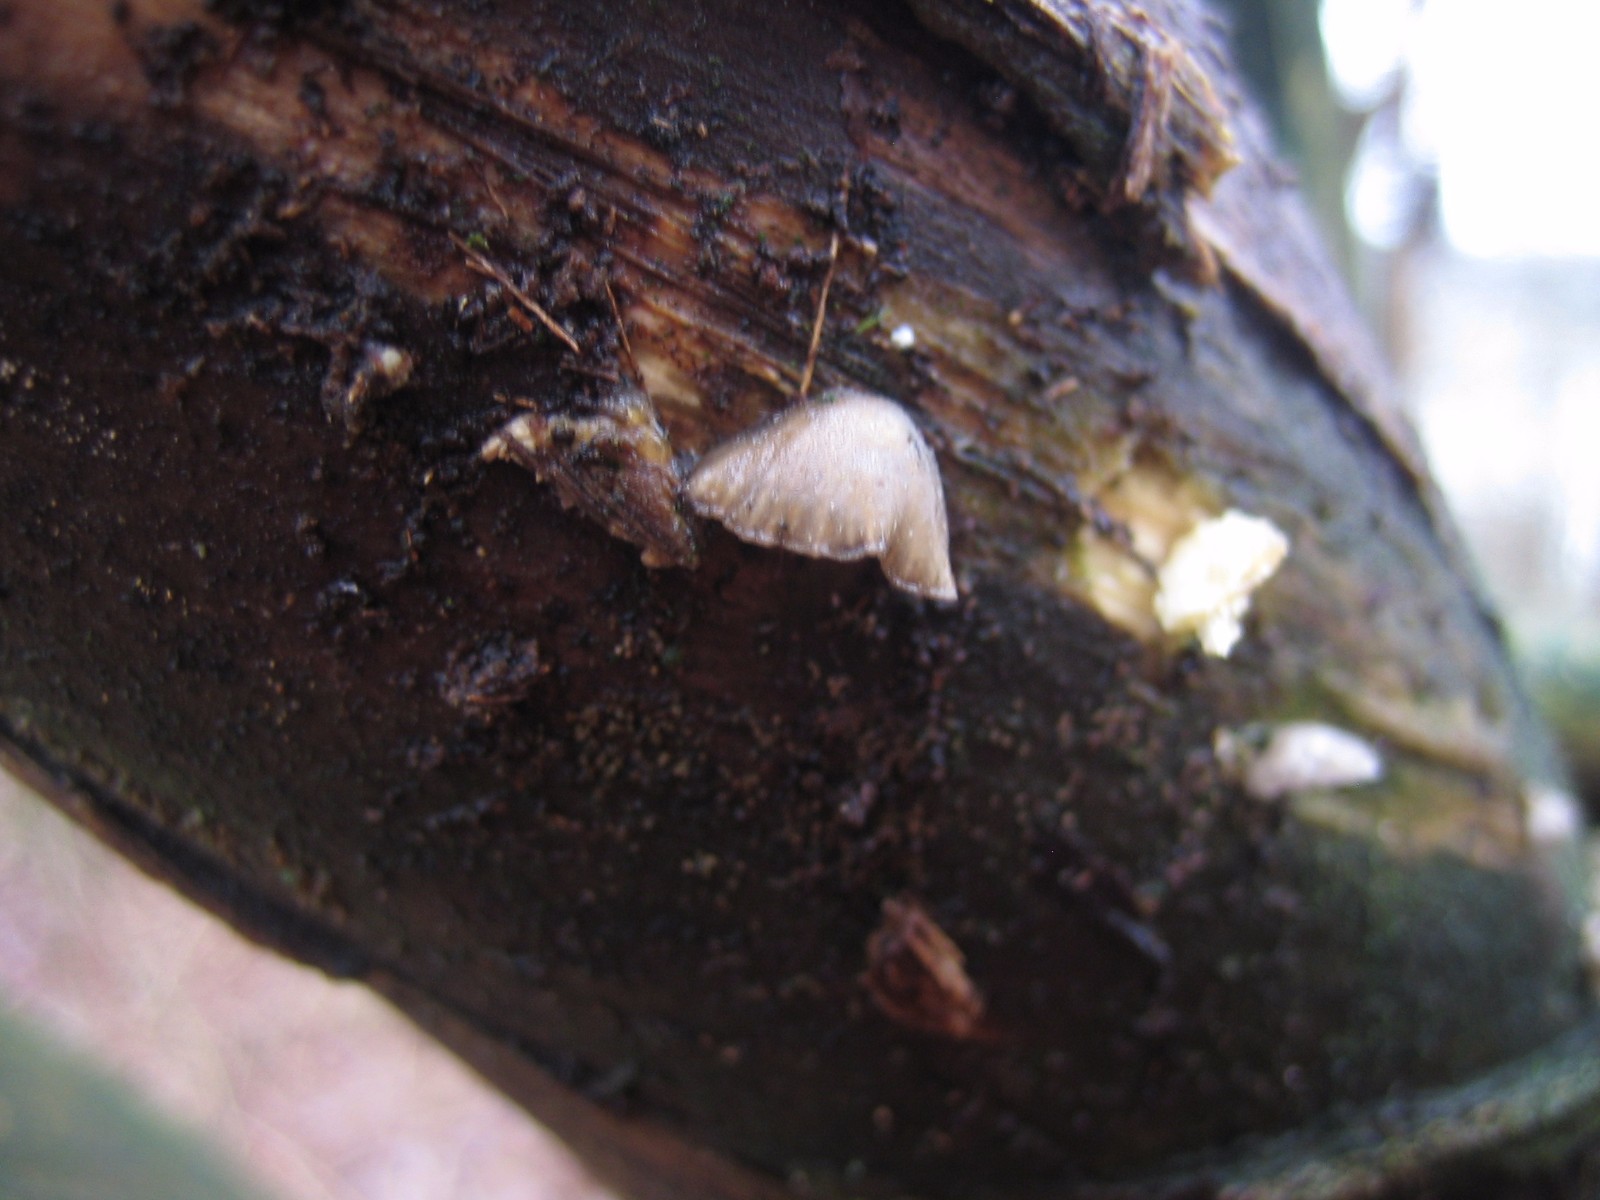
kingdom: Fungi
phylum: Basidiomycota
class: Agaricomycetes
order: Agaricales
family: Pleurotaceae
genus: Hohenbuehelia
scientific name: Hohenbuehelia cyphelliformis
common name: urte-filthat
